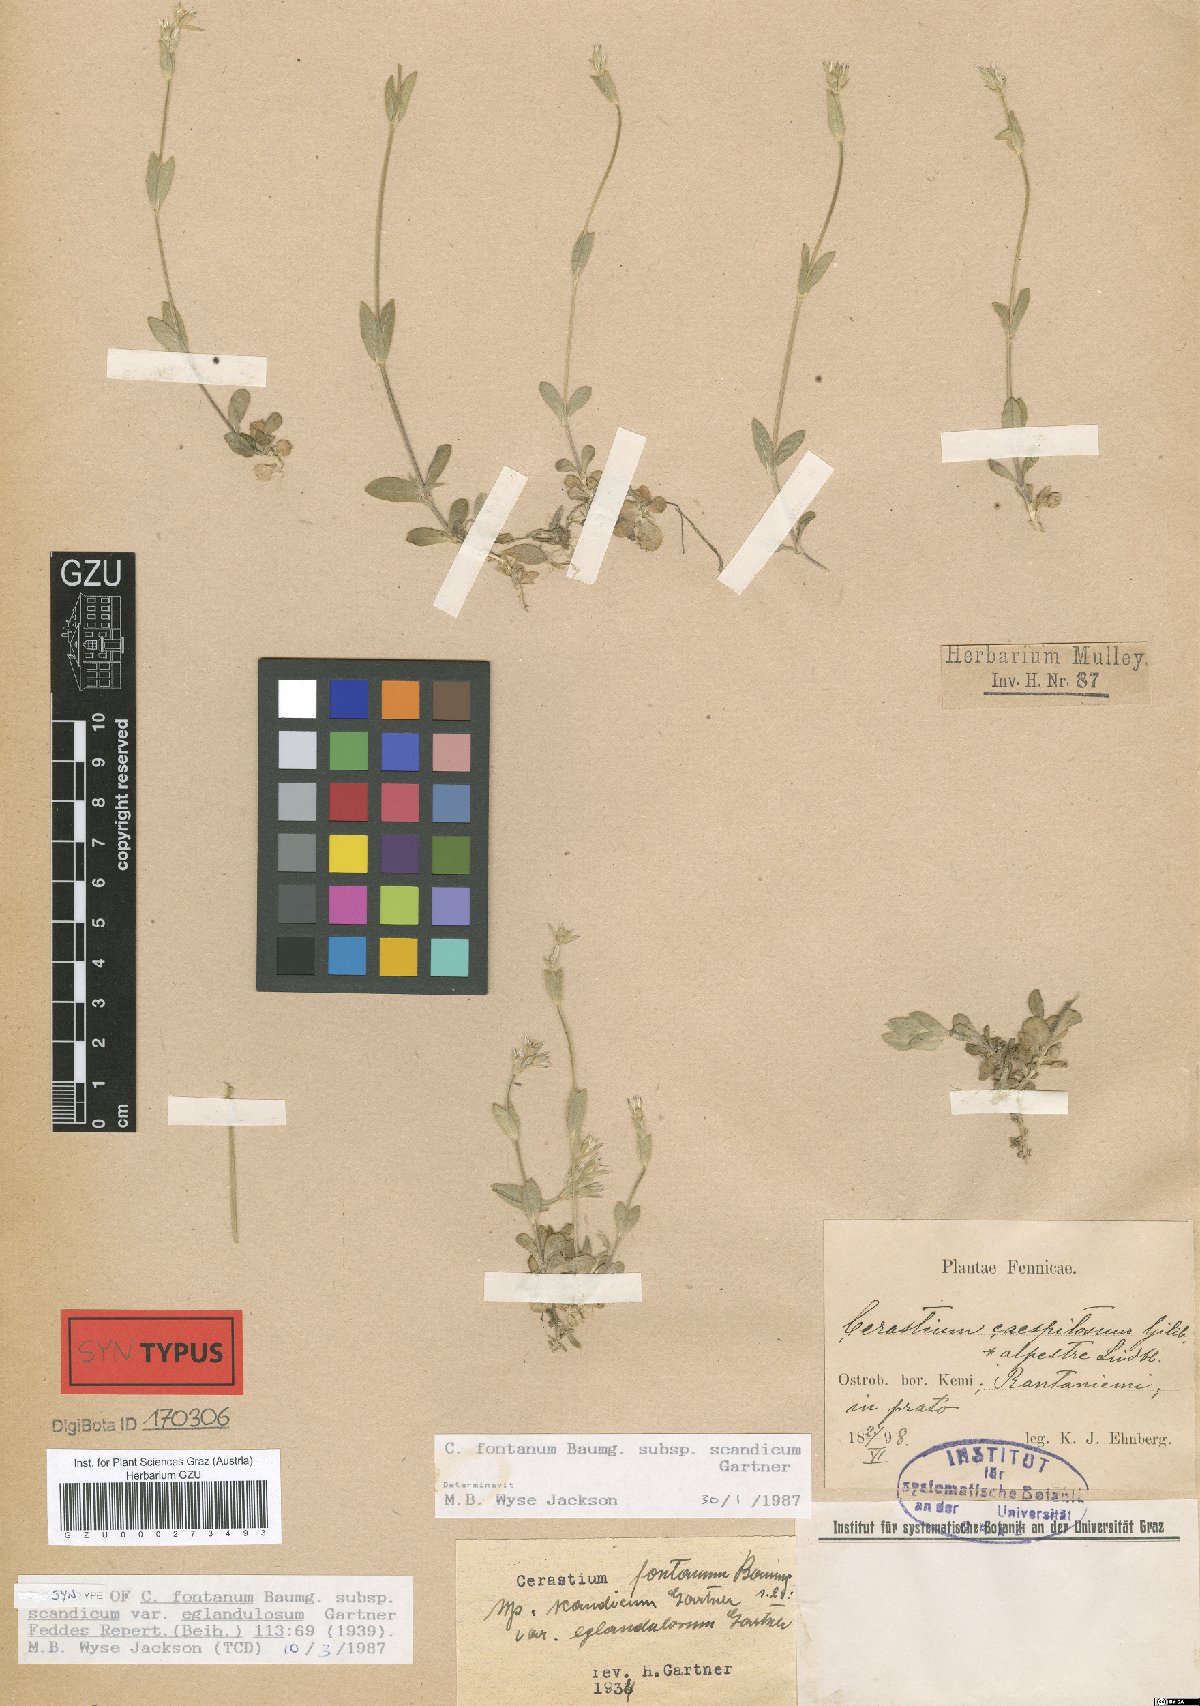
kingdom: Plantae
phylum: Tracheophyta
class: Magnoliopsida
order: Caryophyllales
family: Caryophyllaceae
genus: Cerastium
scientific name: Cerastium holosteoides
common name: Big chickweed
